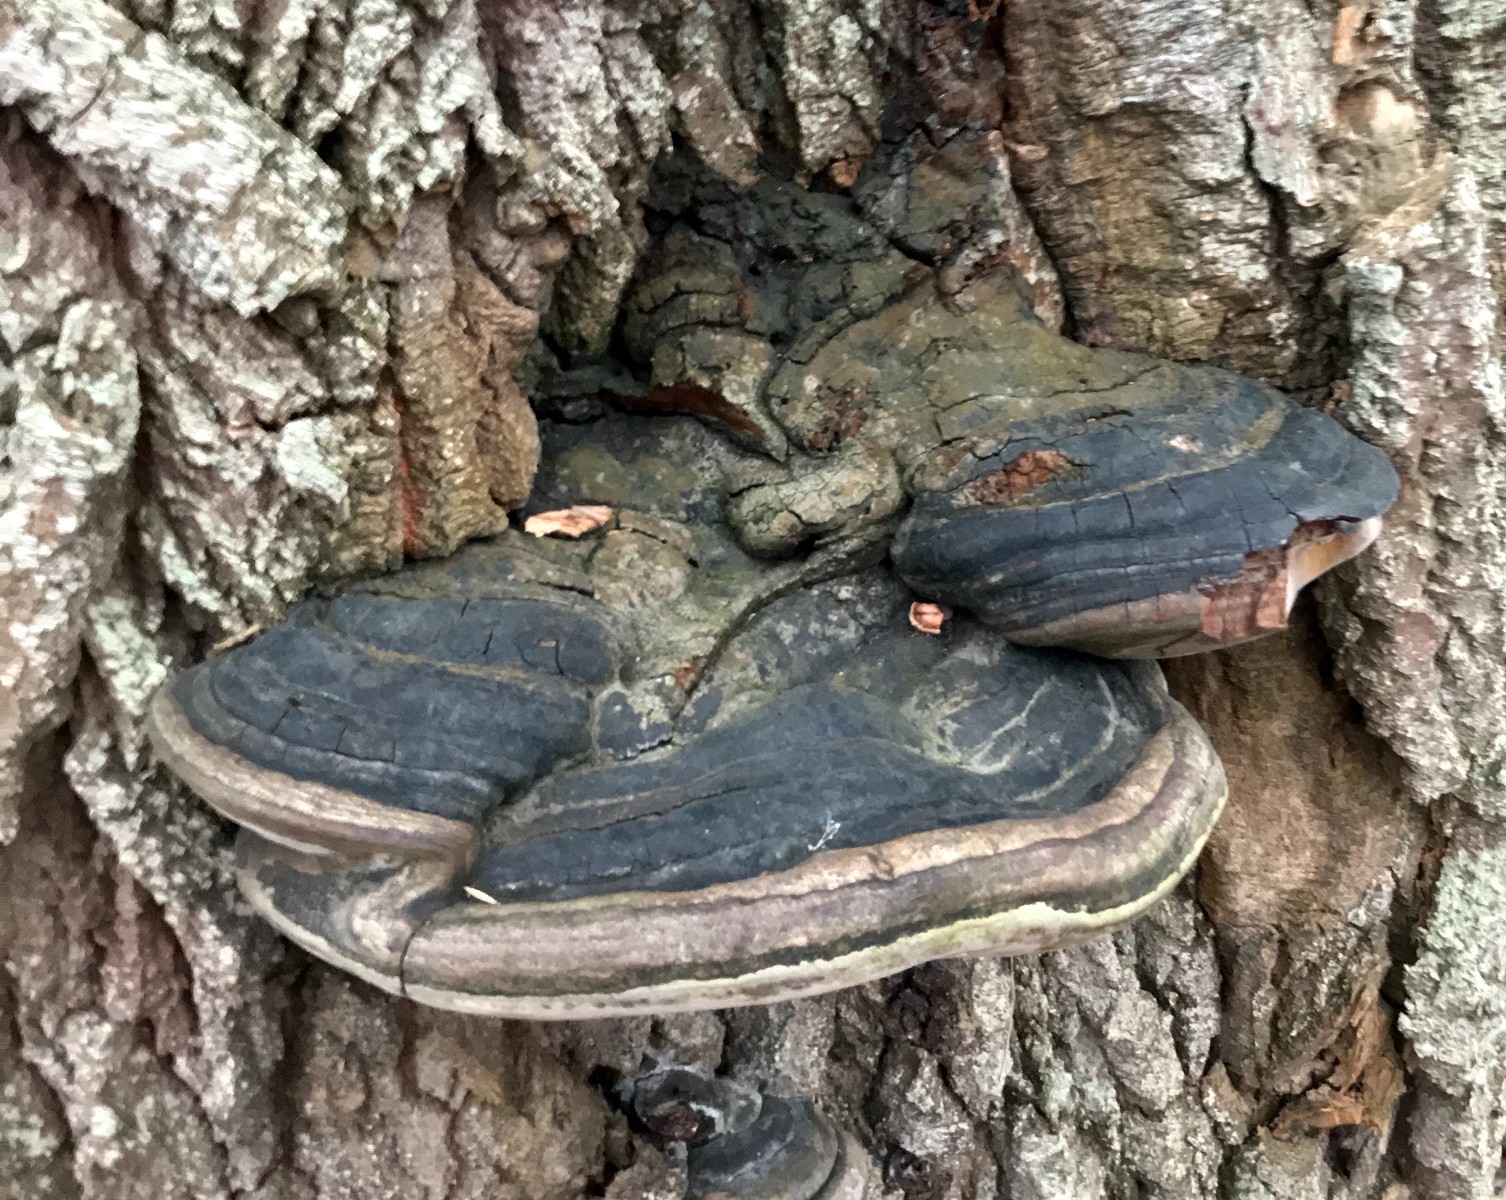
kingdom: Fungi
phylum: Basidiomycota
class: Agaricomycetes
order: Hymenochaetales
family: Hymenochaetaceae
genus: Phellinus
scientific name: Phellinus populicola
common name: poppel-ildporesvamp
